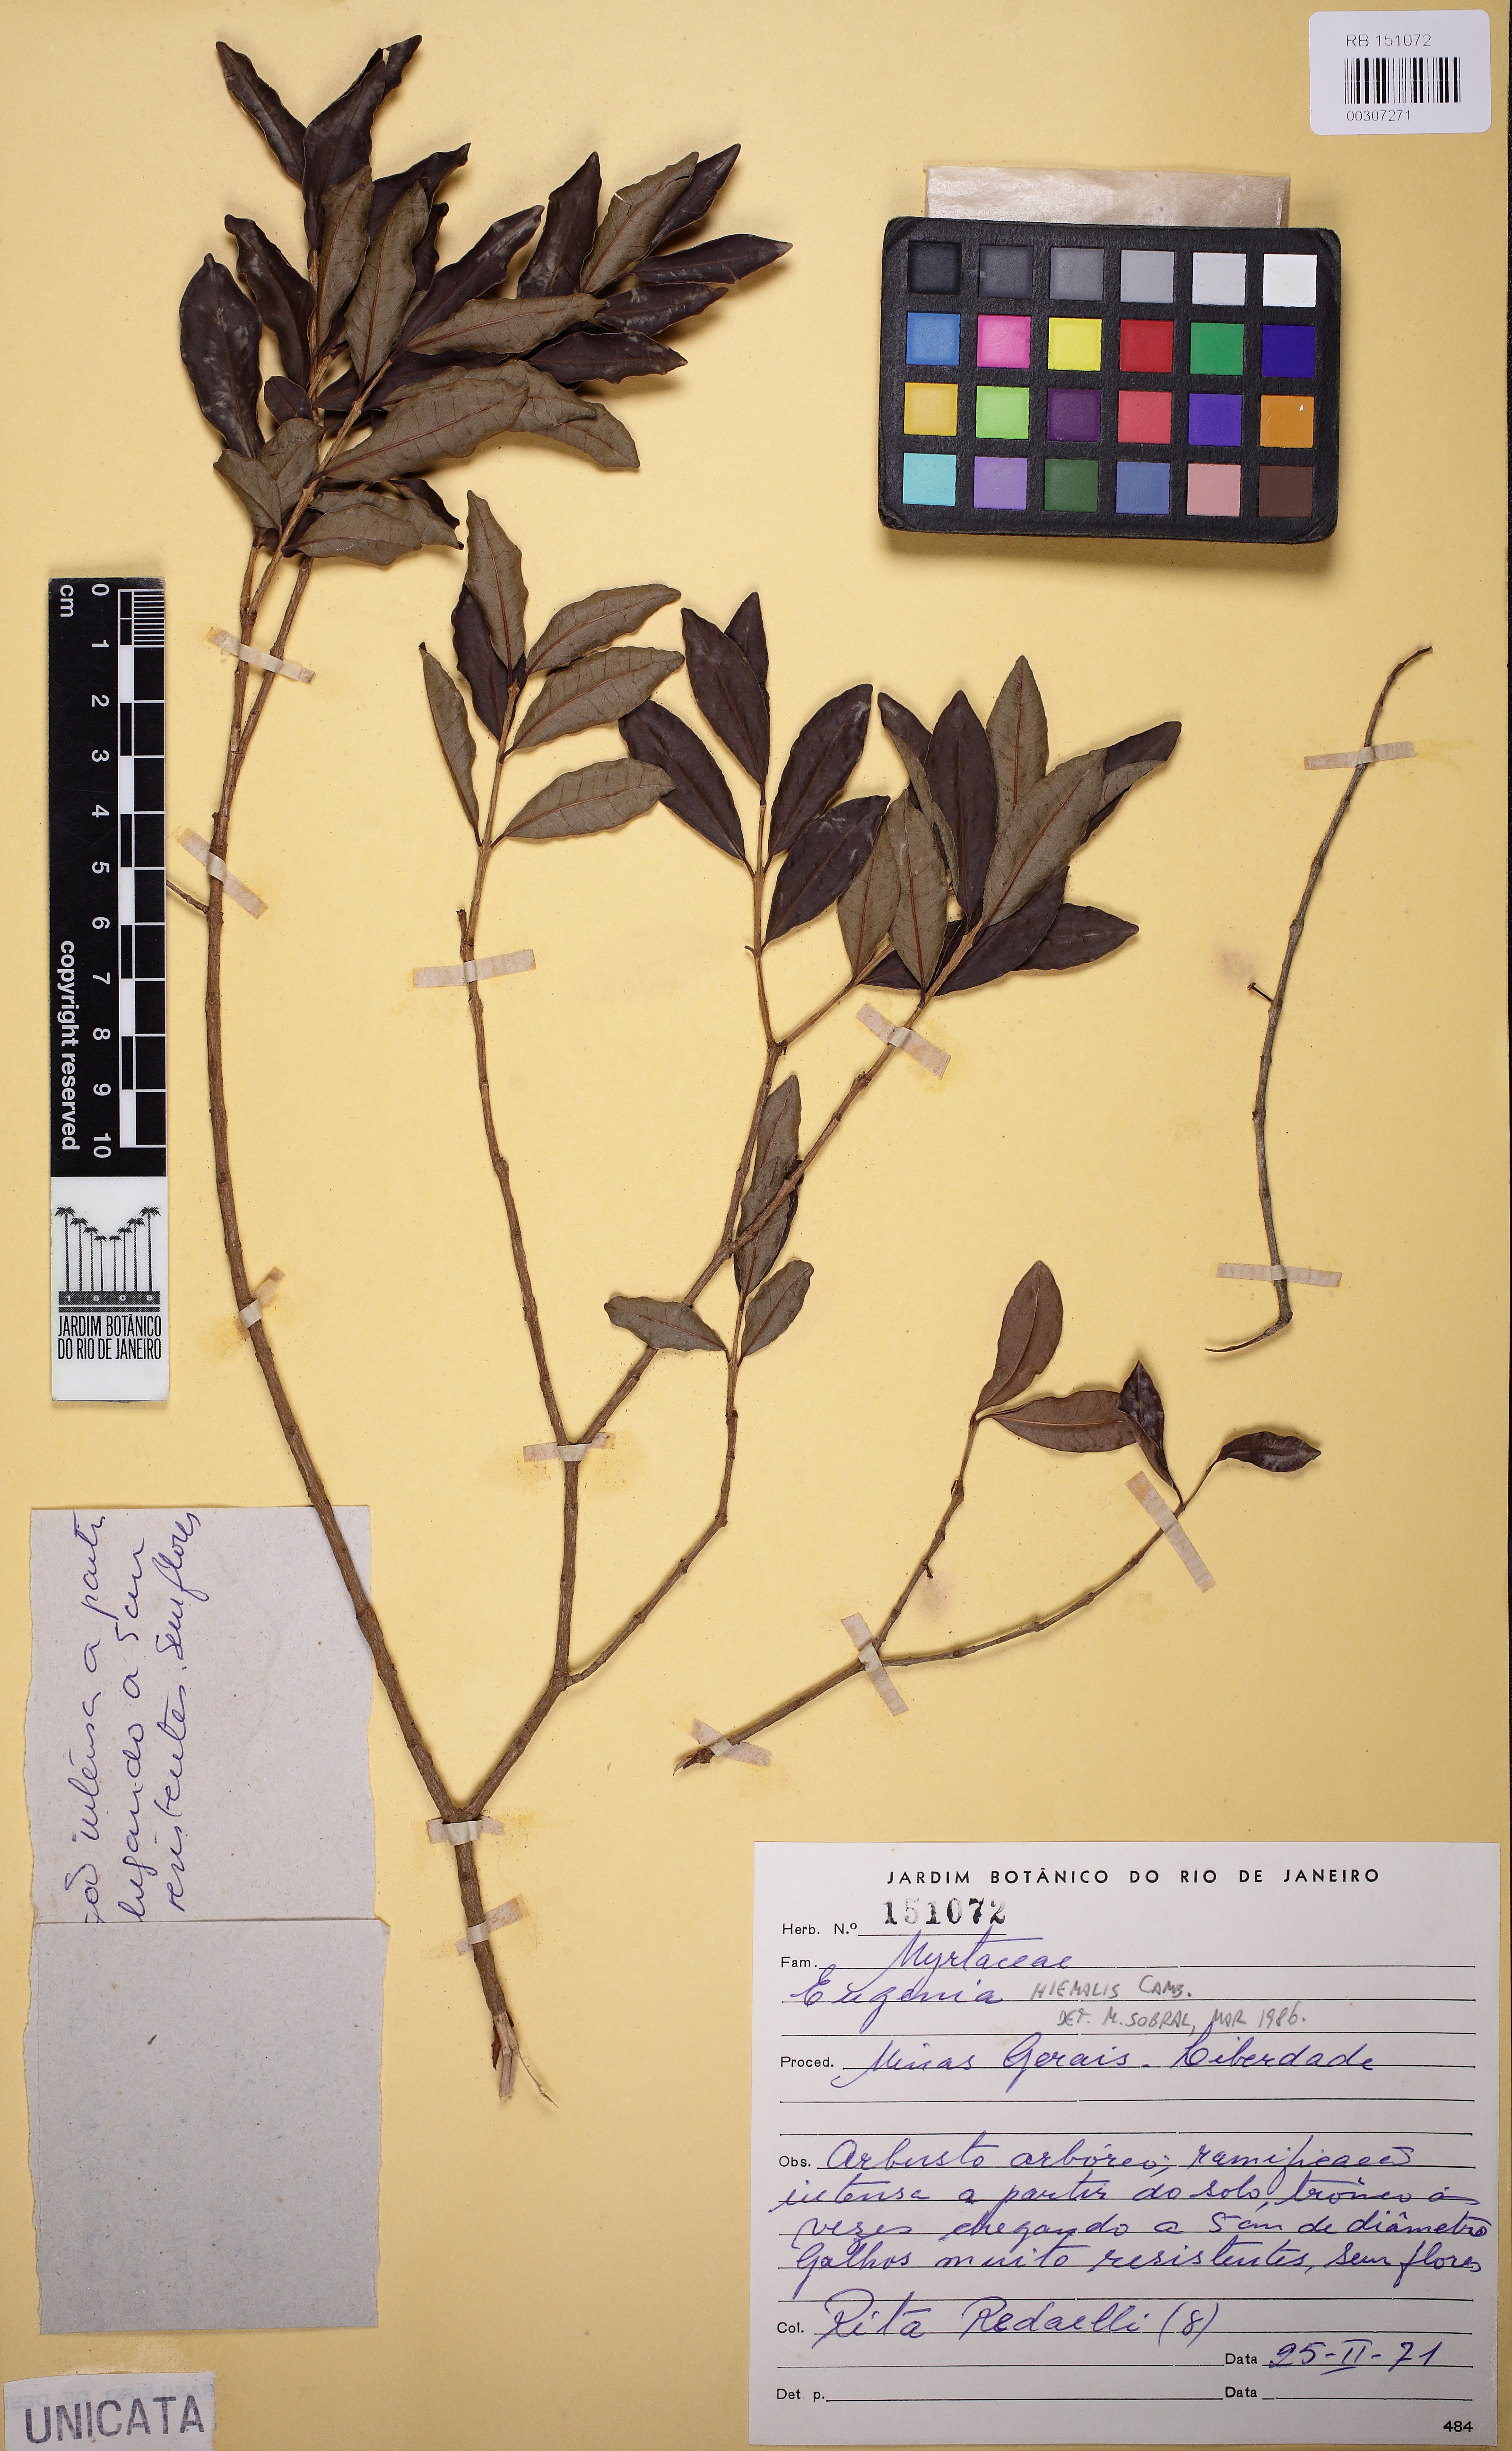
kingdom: Plantae
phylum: Tracheophyta
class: Magnoliopsida
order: Myrtales
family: Myrtaceae
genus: Eugenia
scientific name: Eugenia hiemalis
